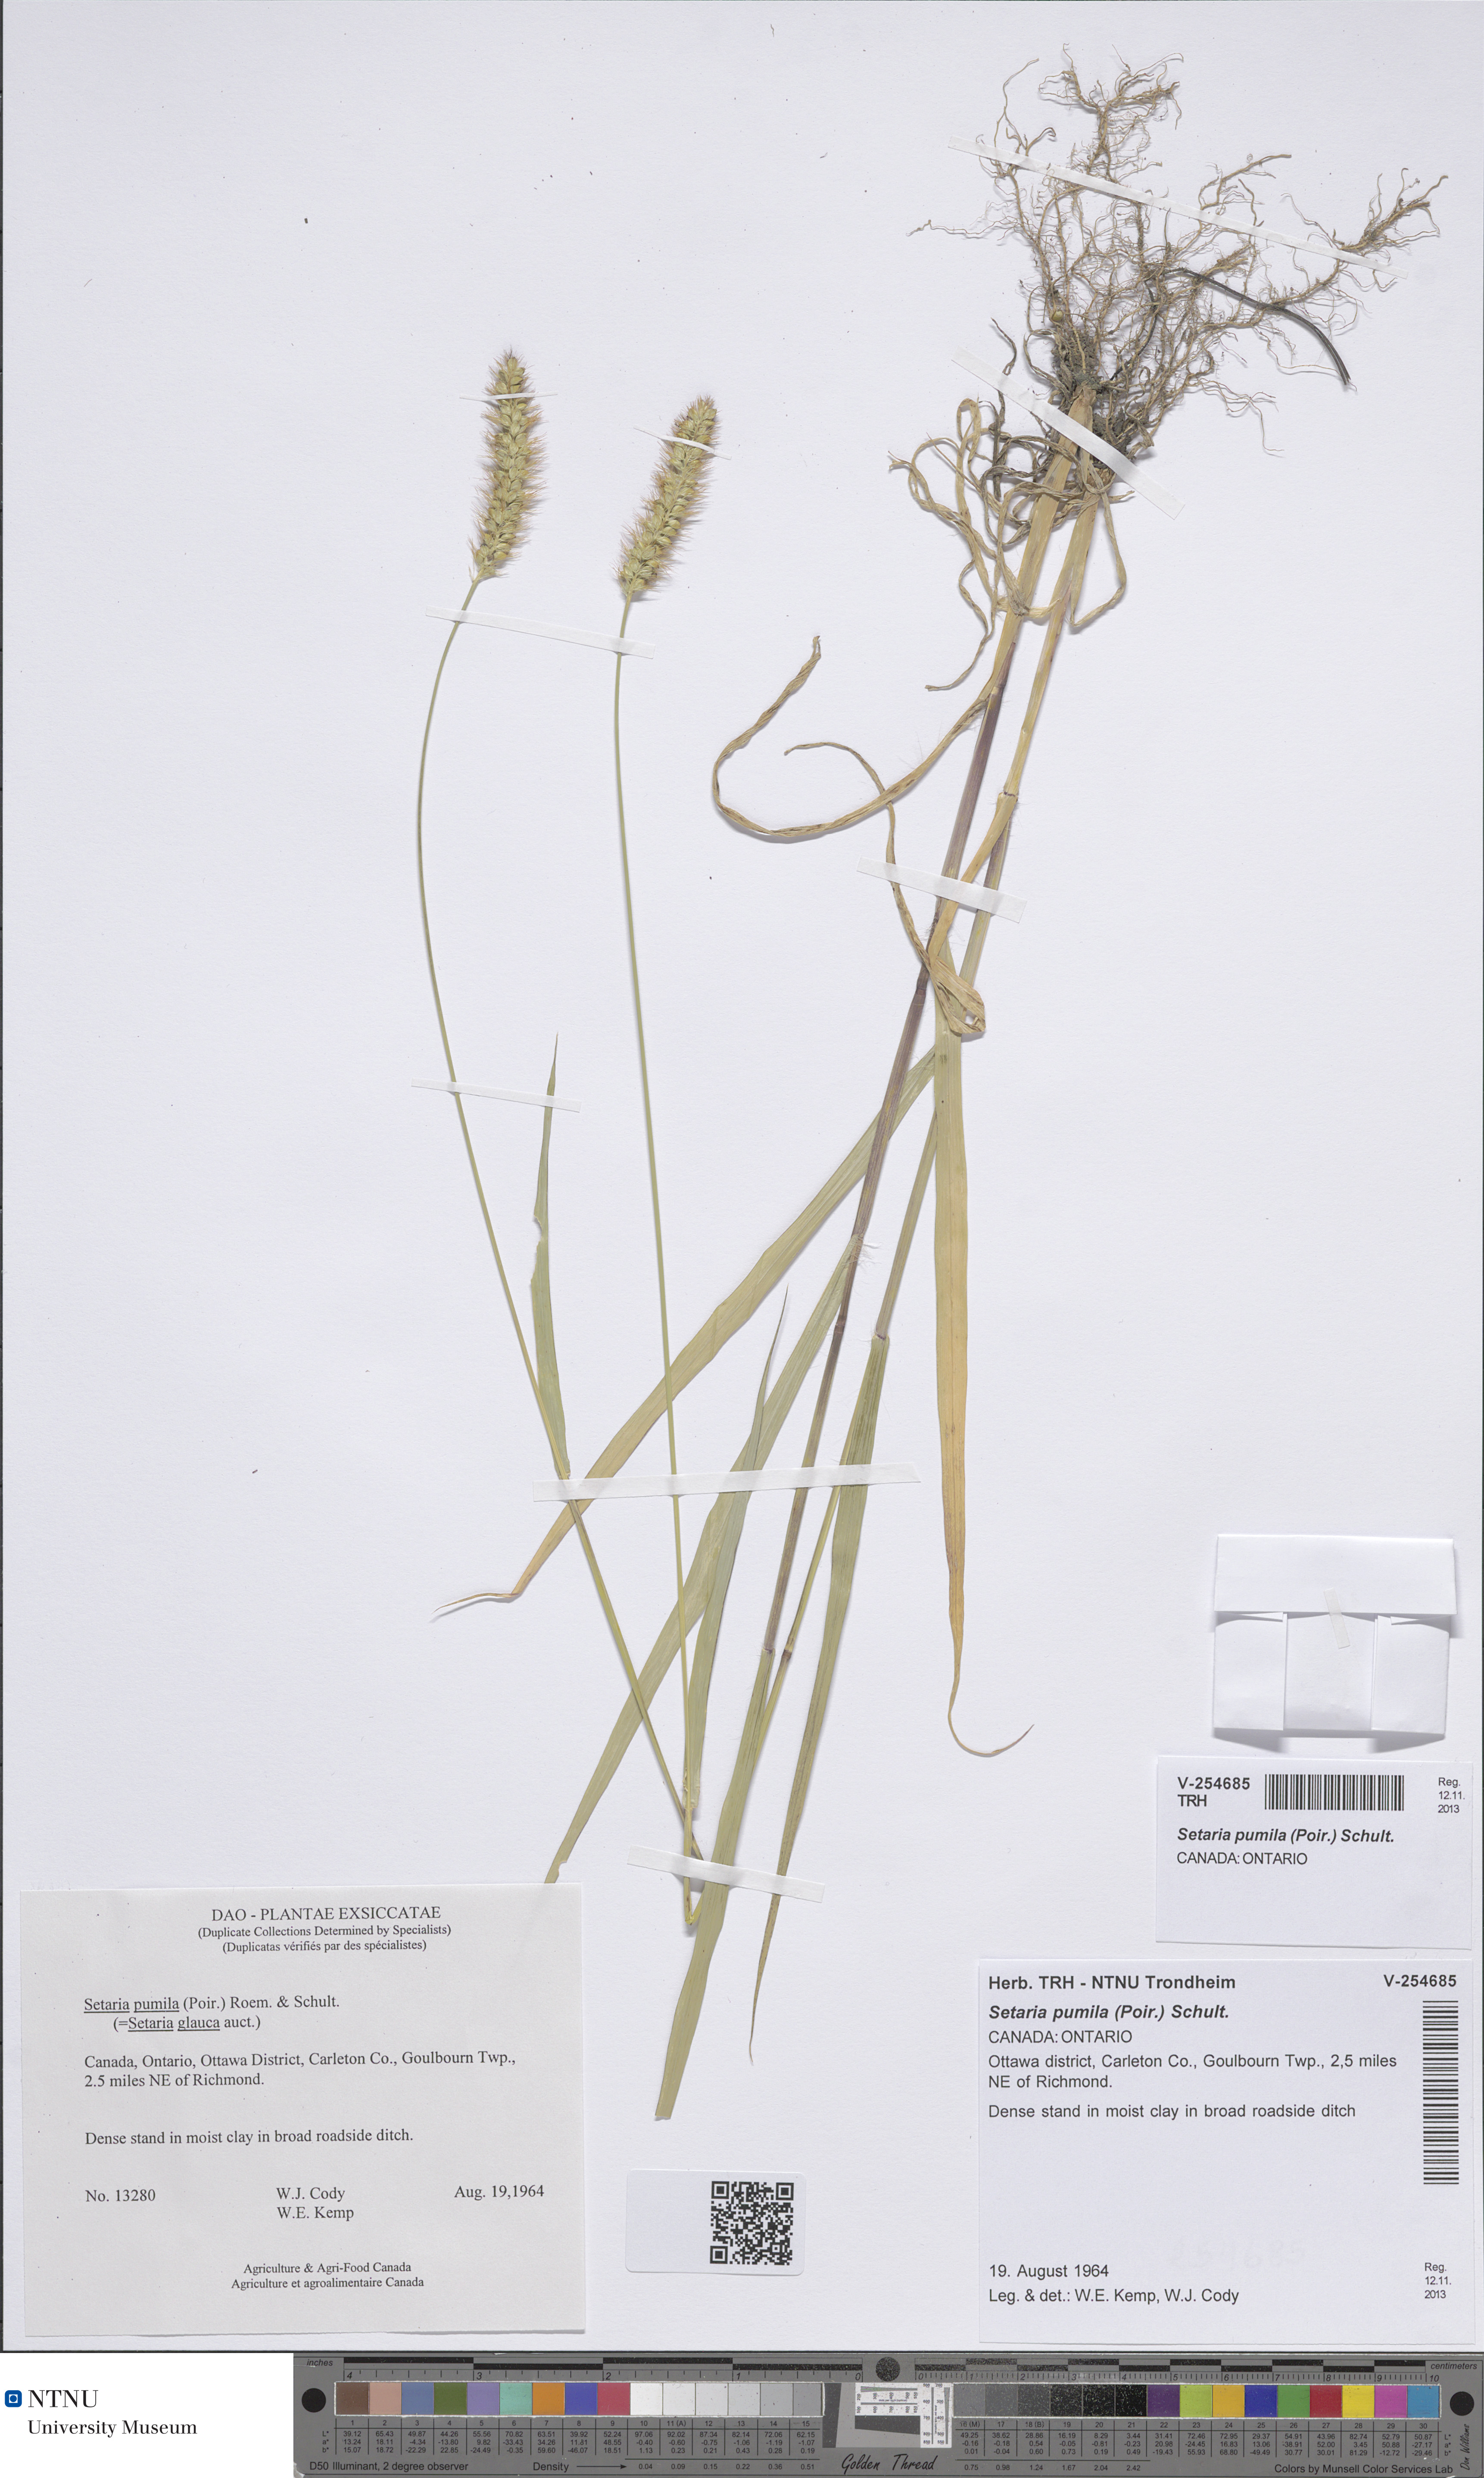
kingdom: Plantae
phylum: Tracheophyta
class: Liliopsida
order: Poales
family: Poaceae
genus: Setaria
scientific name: Setaria pumila
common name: Yellow bristle-grass
